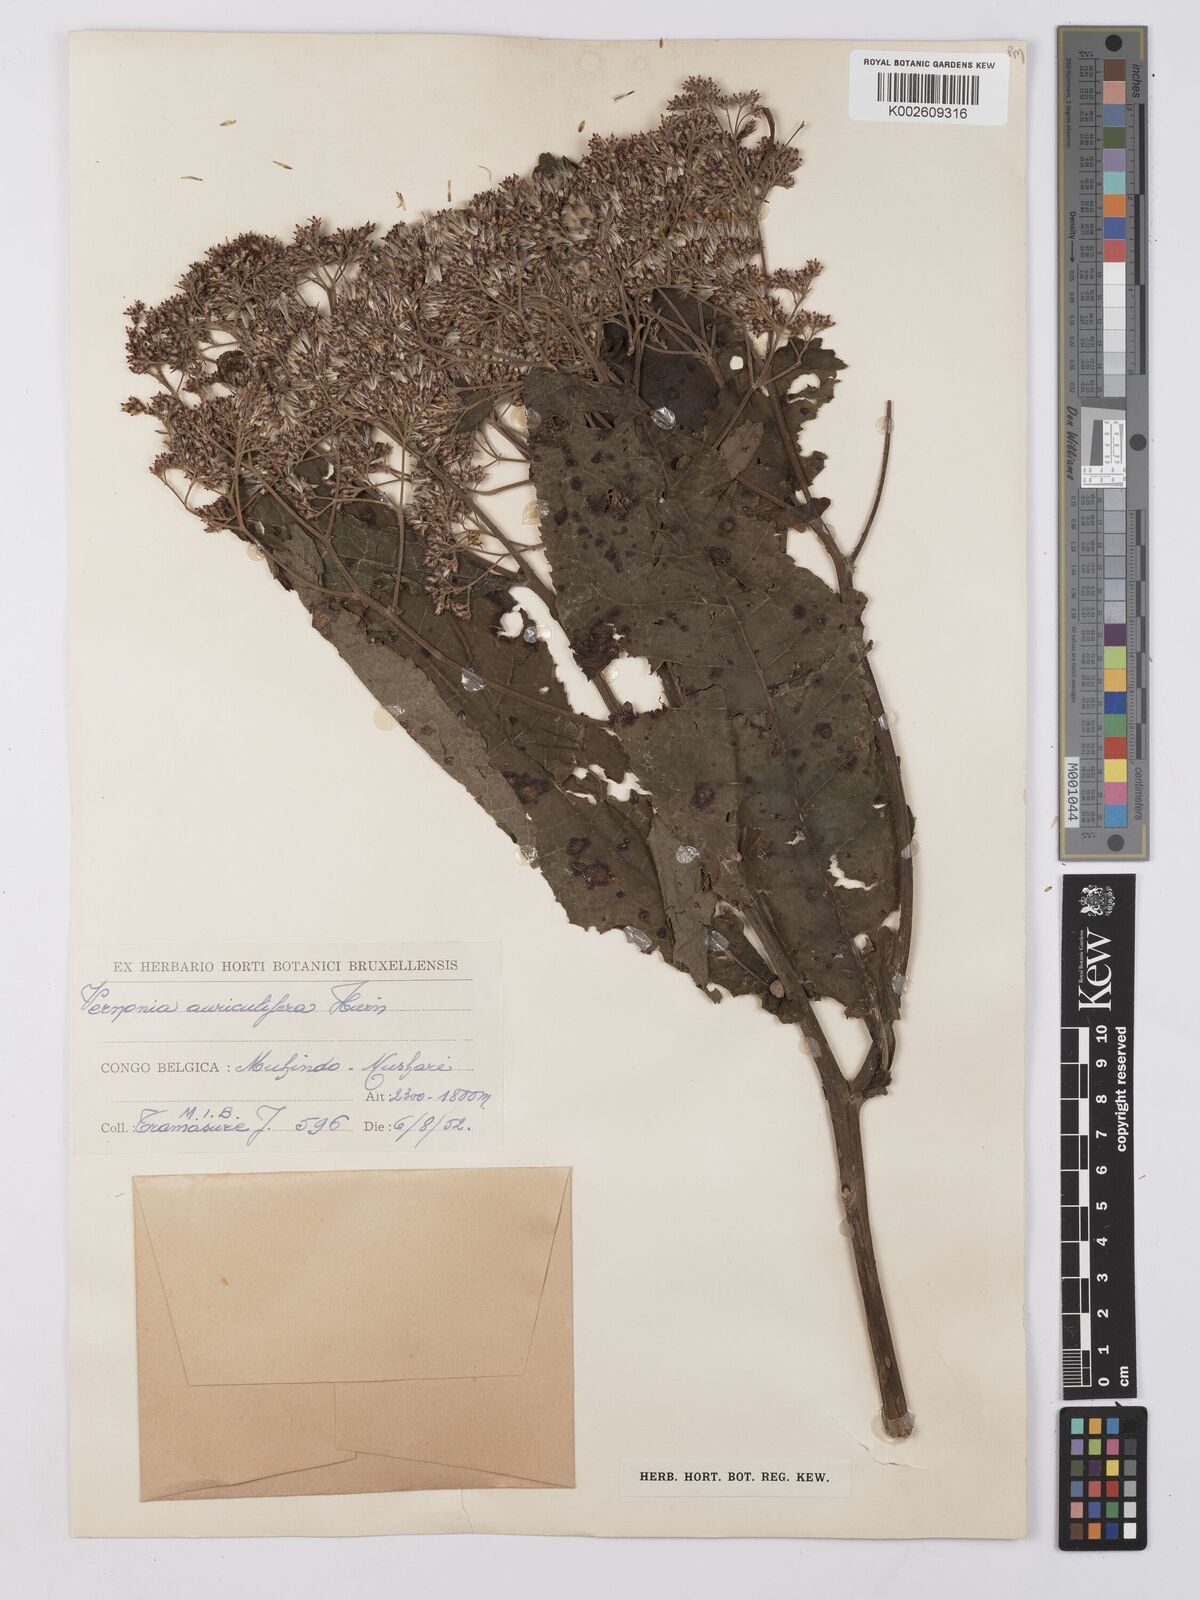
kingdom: Plantae
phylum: Tracheophyta
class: Magnoliopsida
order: Asterales
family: Asteraceae
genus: Gymnanthemum
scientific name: Gymnanthemum auriculiferum
